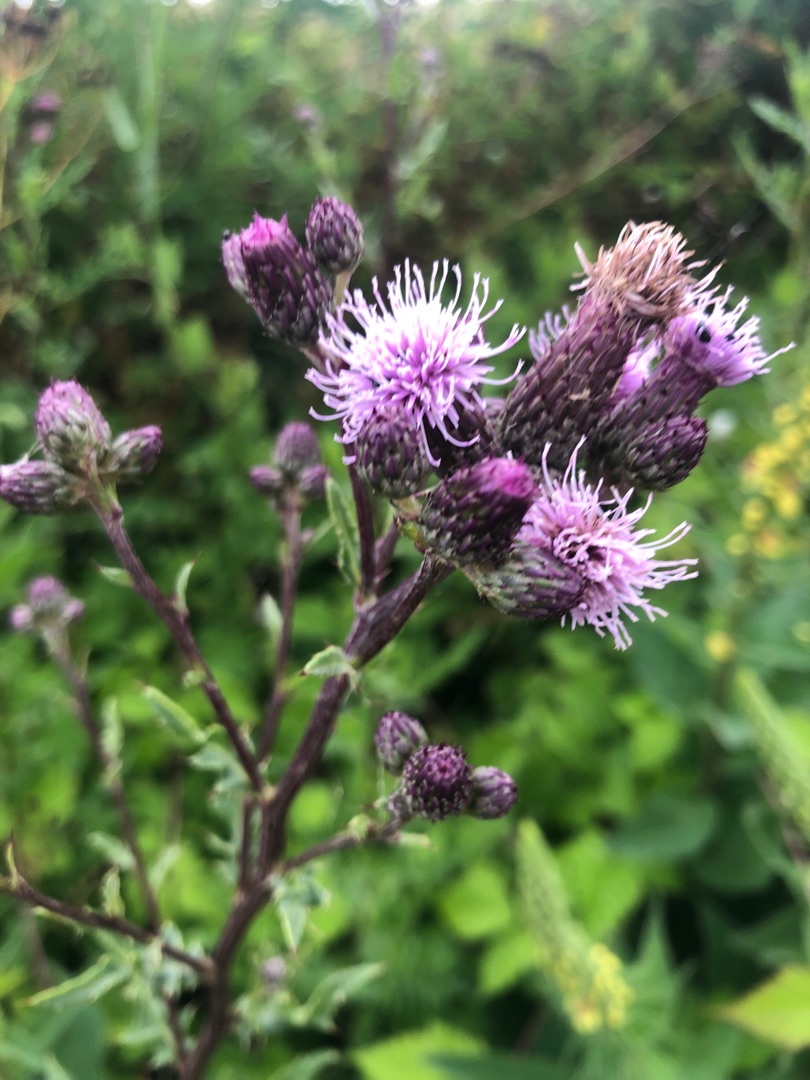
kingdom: Plantae
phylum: Tracheophyta
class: Magnoliopsida
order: Asterales
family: Asteraceae
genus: Cirsium
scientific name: Cirsium arvense
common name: Ager-tidsel
